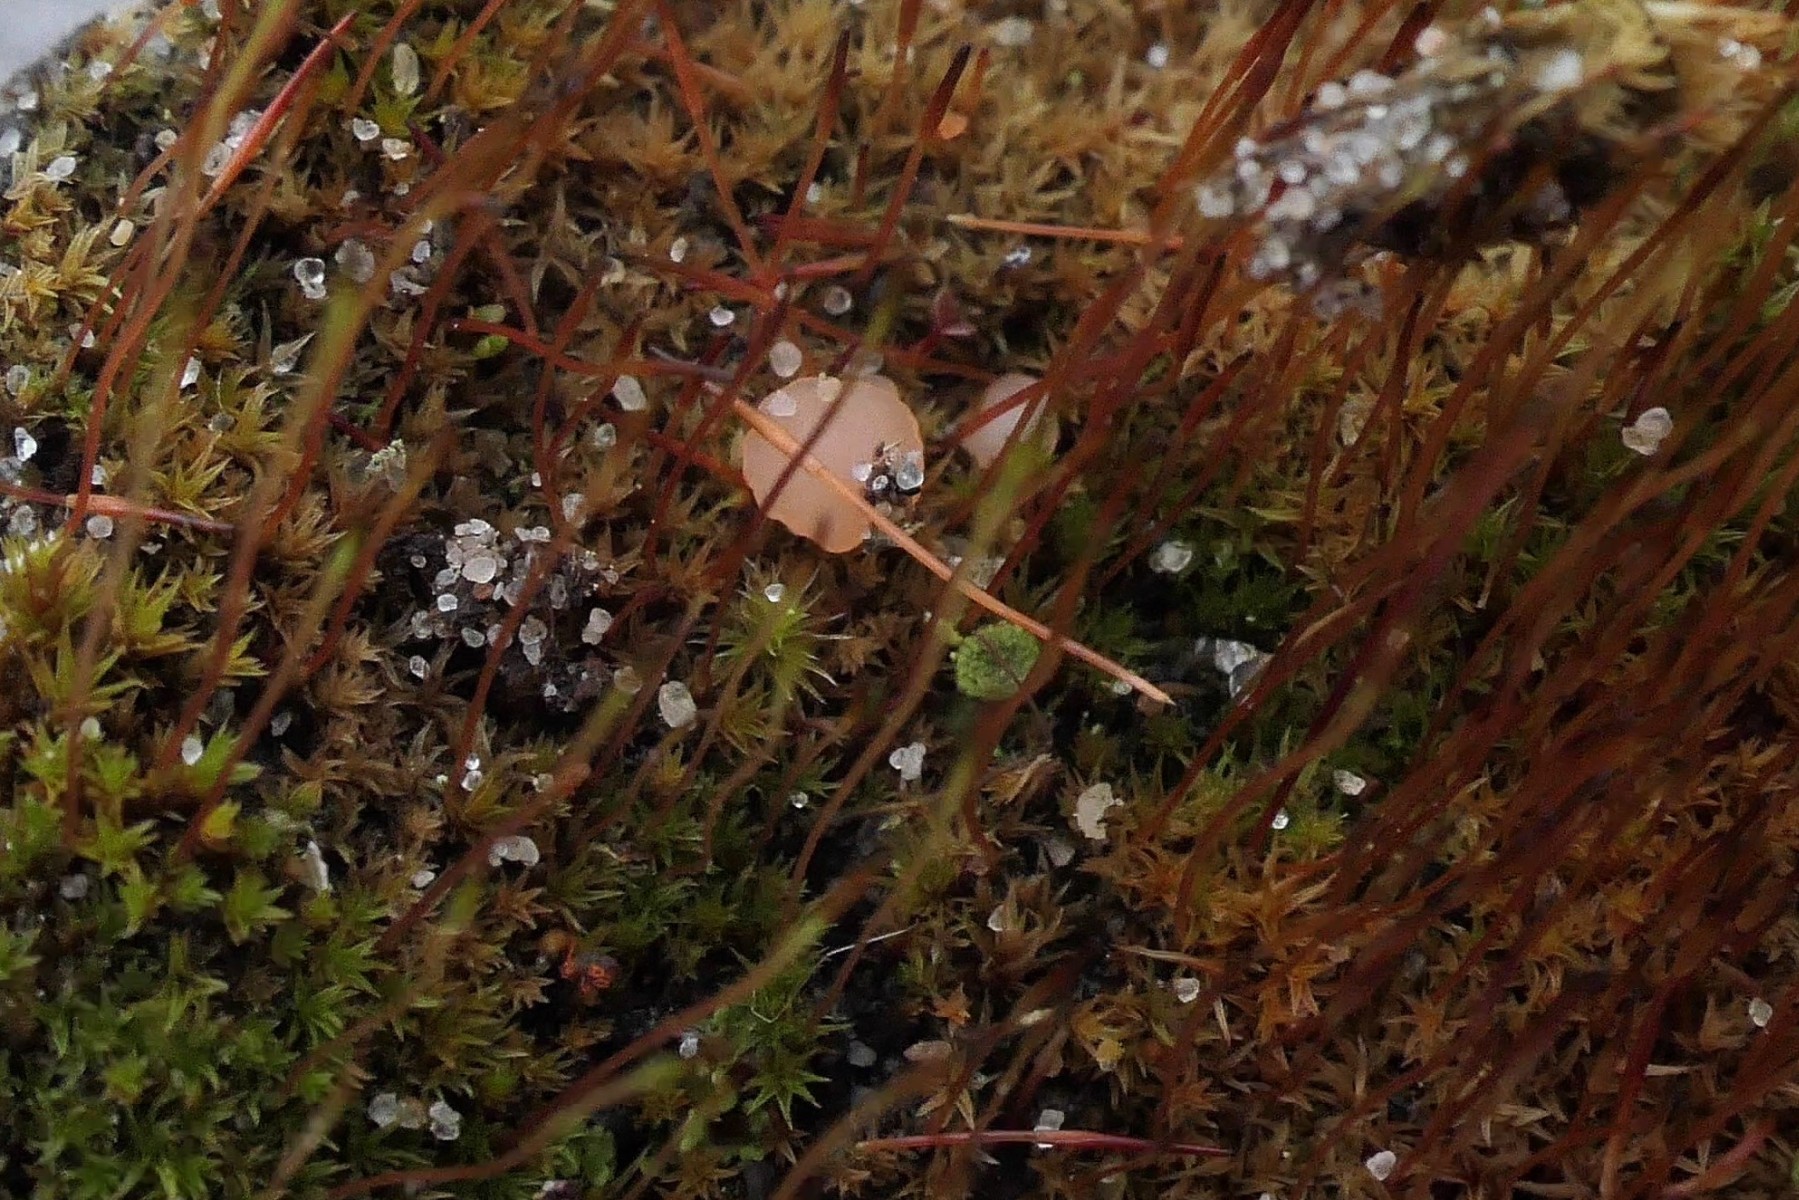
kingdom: Fungi
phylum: Ascomycota
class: Leotiomycetes
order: Helotiales
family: Hyaloscyphaceae
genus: Roseodiscus
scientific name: Roseodiscus formosus
